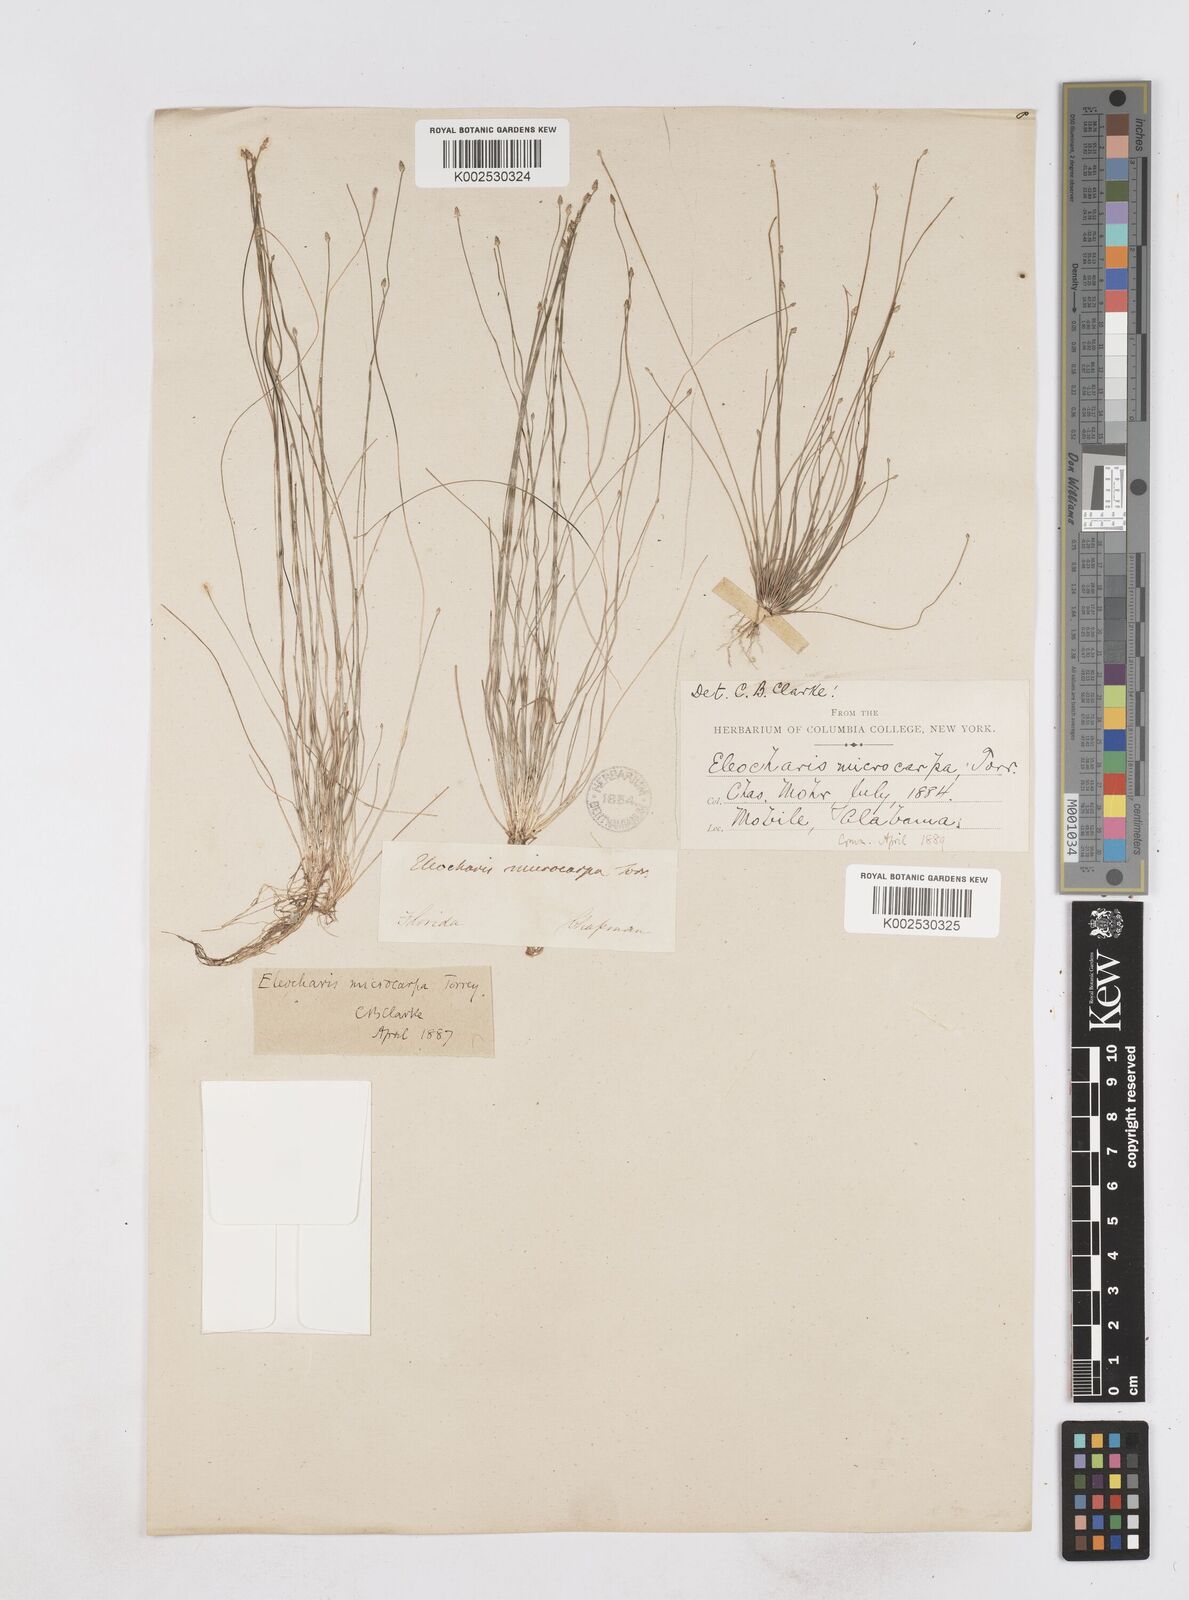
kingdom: Plantae
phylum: Tracheophyta
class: Liliopsida
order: Poales
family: Cyperaceae
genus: Eleocharis
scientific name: Eleocharis microcarpa
